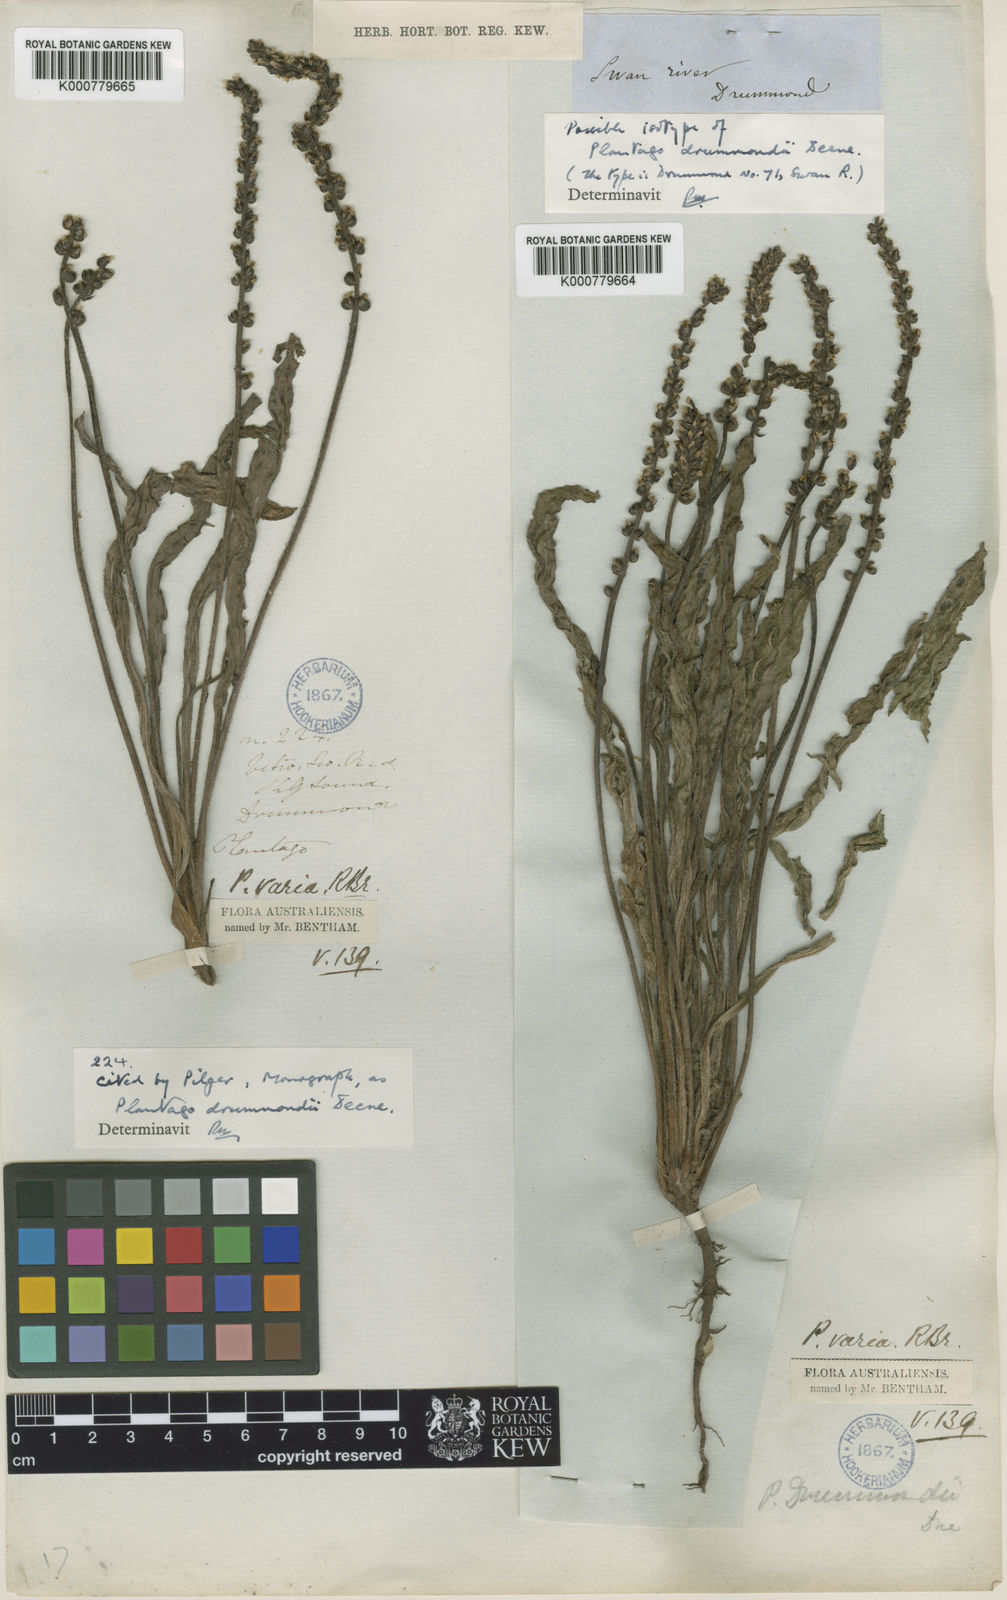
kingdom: Plantae
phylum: Tracheophyta
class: Magnoliopsida
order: Lamiales
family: Plantaginaceae
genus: Plantago
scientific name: Plantago drummondii
